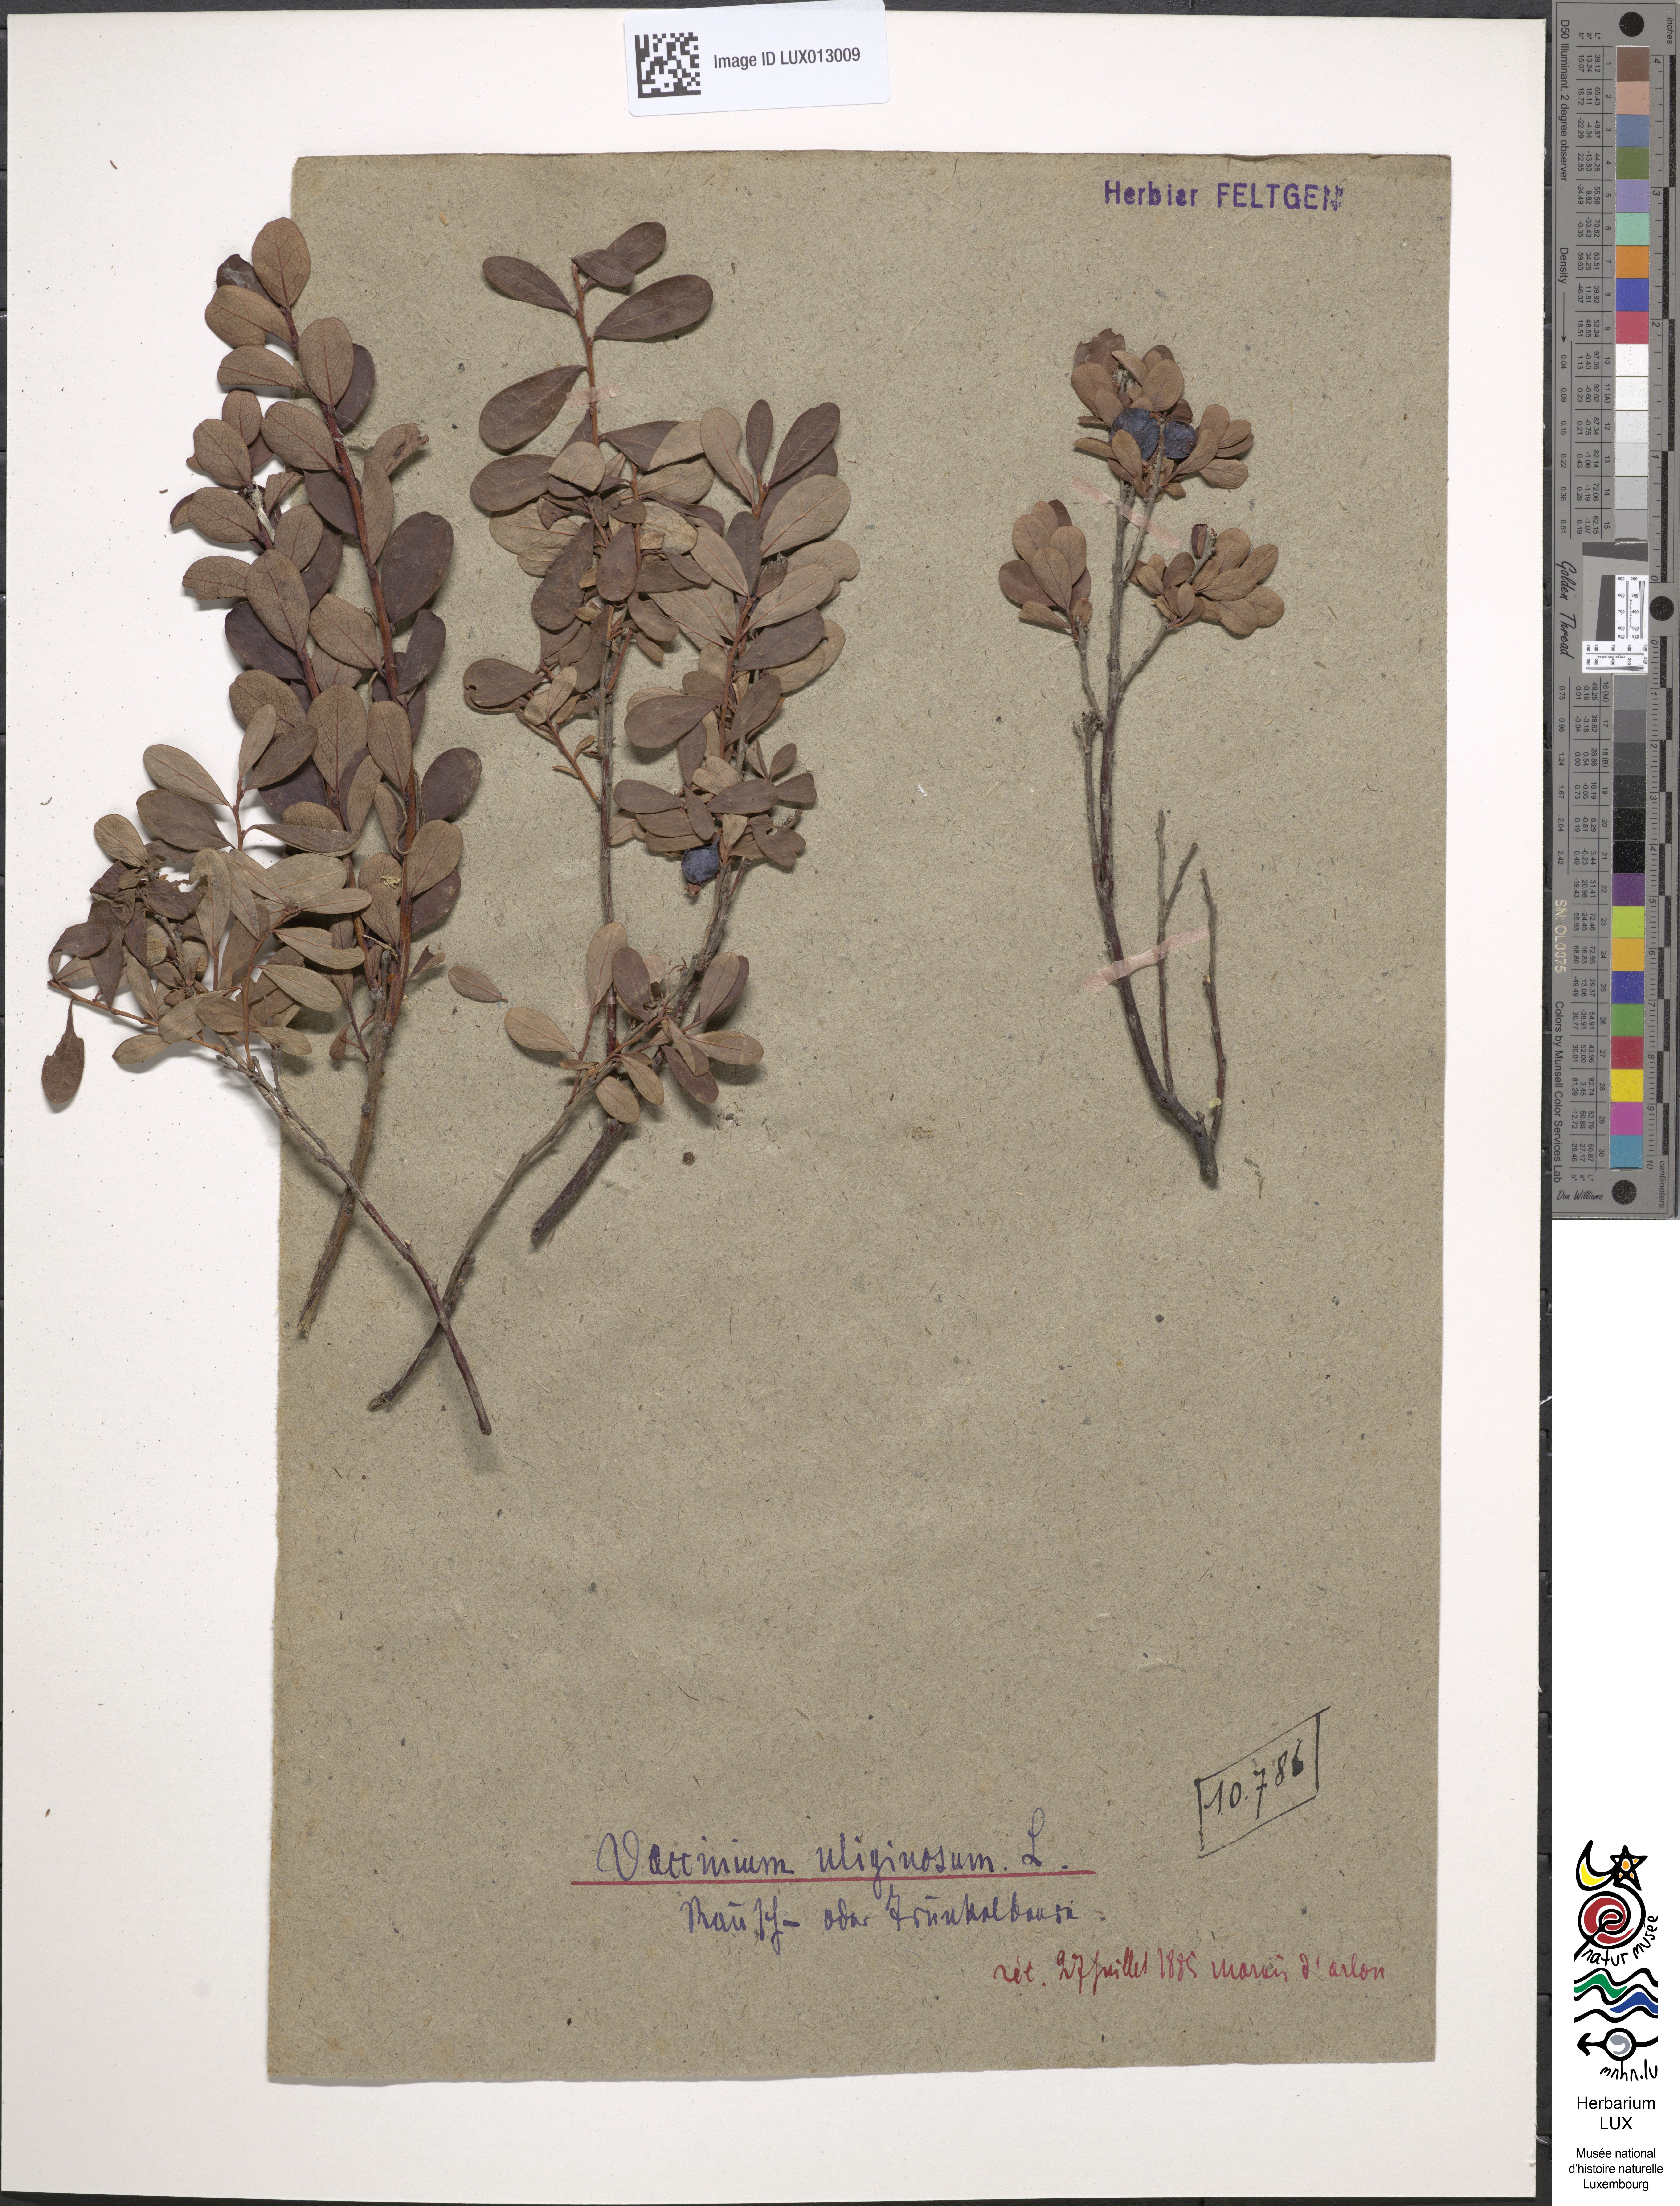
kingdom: Plantae
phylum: Tracheophyta
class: Magnoliopsida
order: Ericales
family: Ericaceae
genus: Vaccinium
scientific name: Vaccinium uliginosum
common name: Bog bilberry
